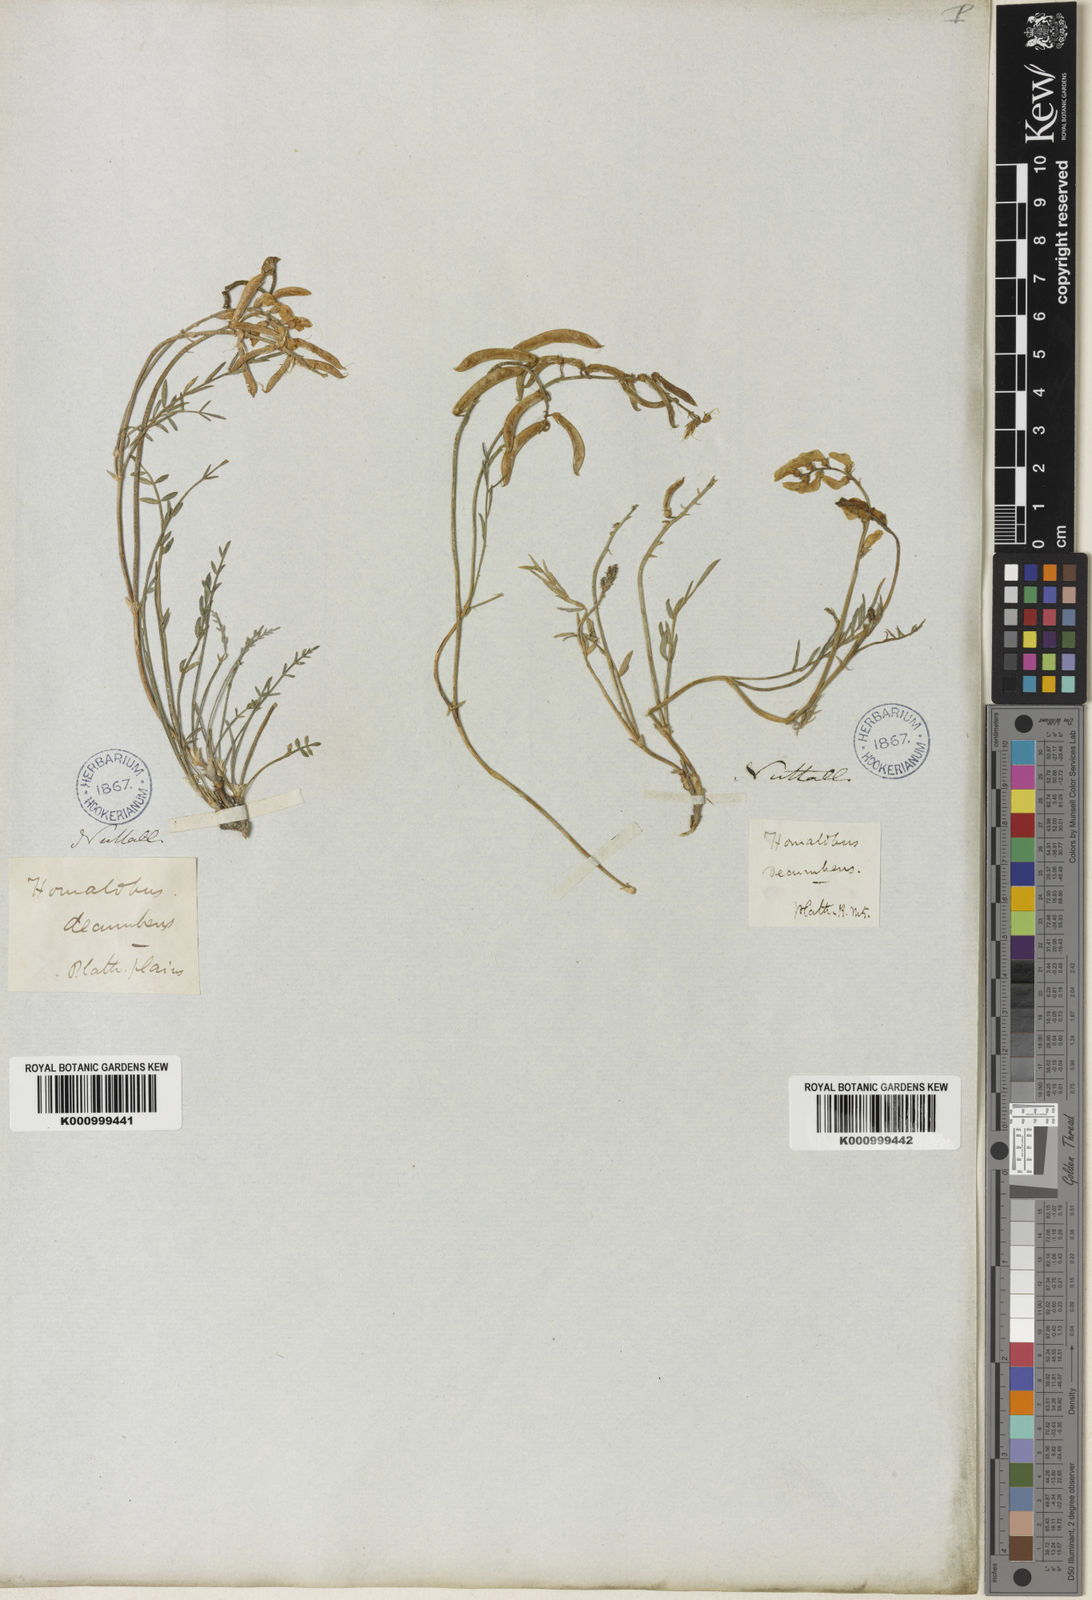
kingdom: Plantae
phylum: Tracheophyta
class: Magnoliopsida
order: Fabales
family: Fabaceae
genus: Astragalus
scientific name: Astragalus miser
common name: Timber milkvetch
